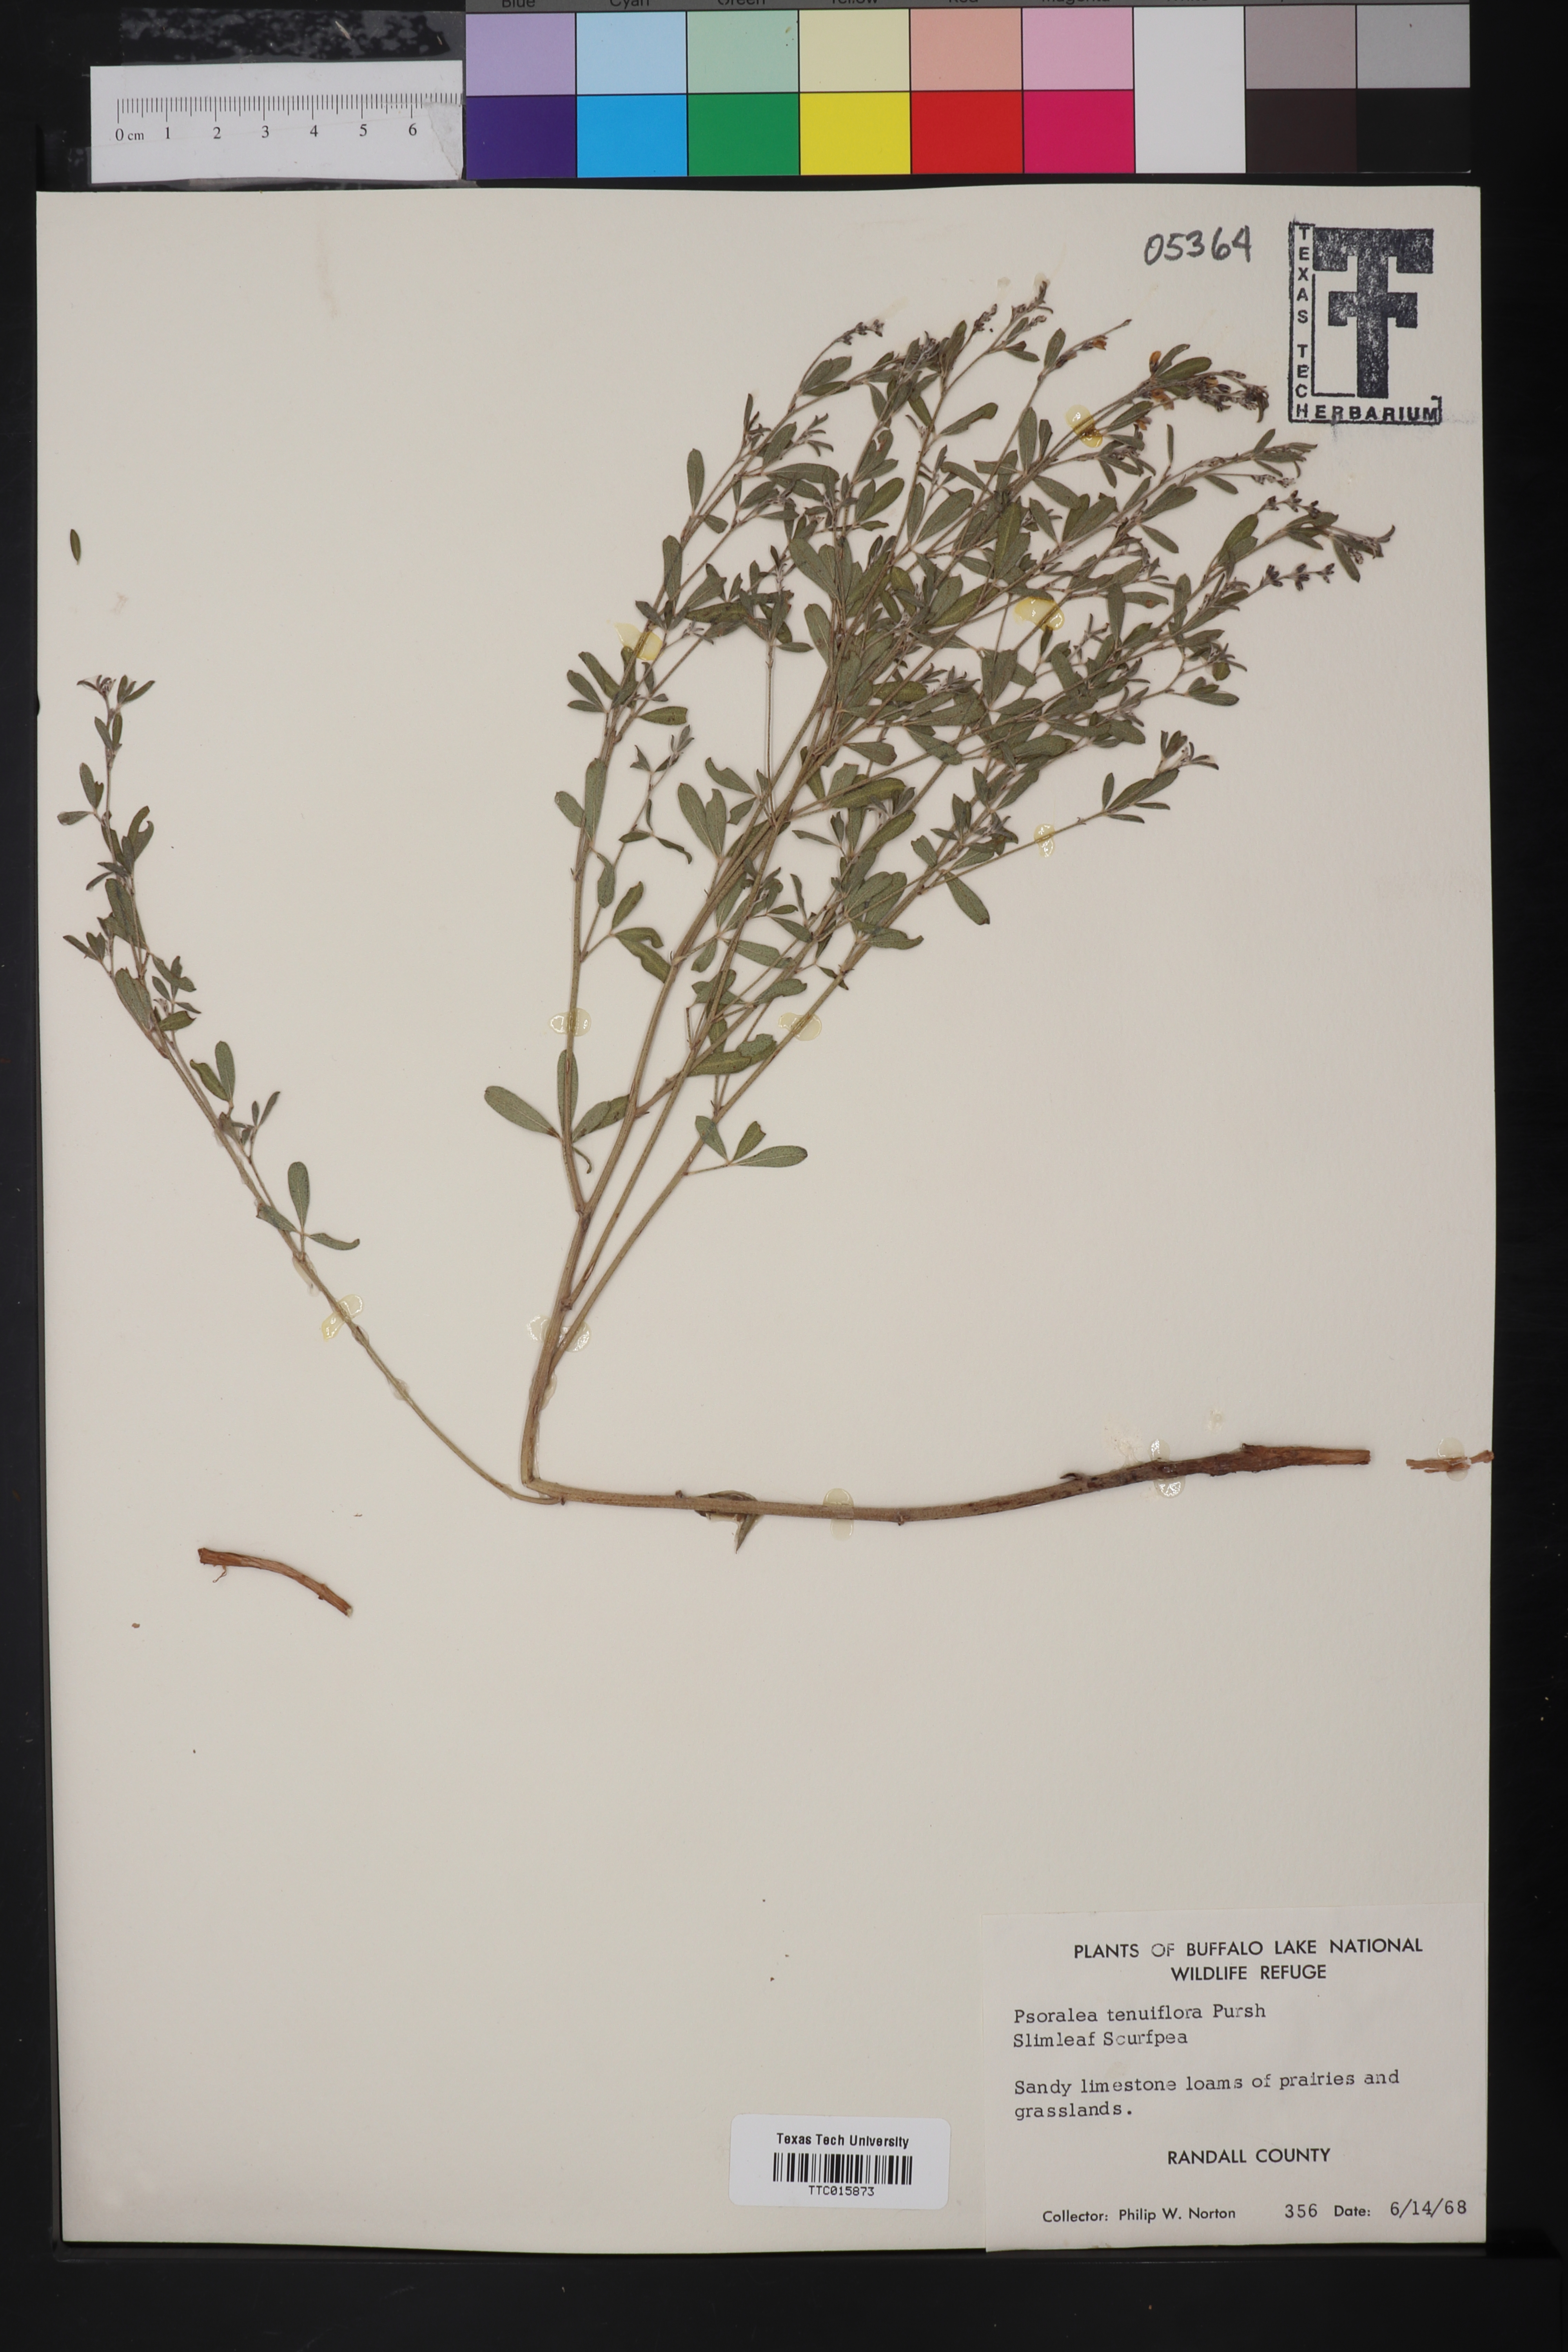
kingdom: Plantae
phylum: Tracheophyta
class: Magnoliopsida
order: Fabales
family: Fabaceae
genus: Pediomelum
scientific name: Pediomelum tenuiflorum
